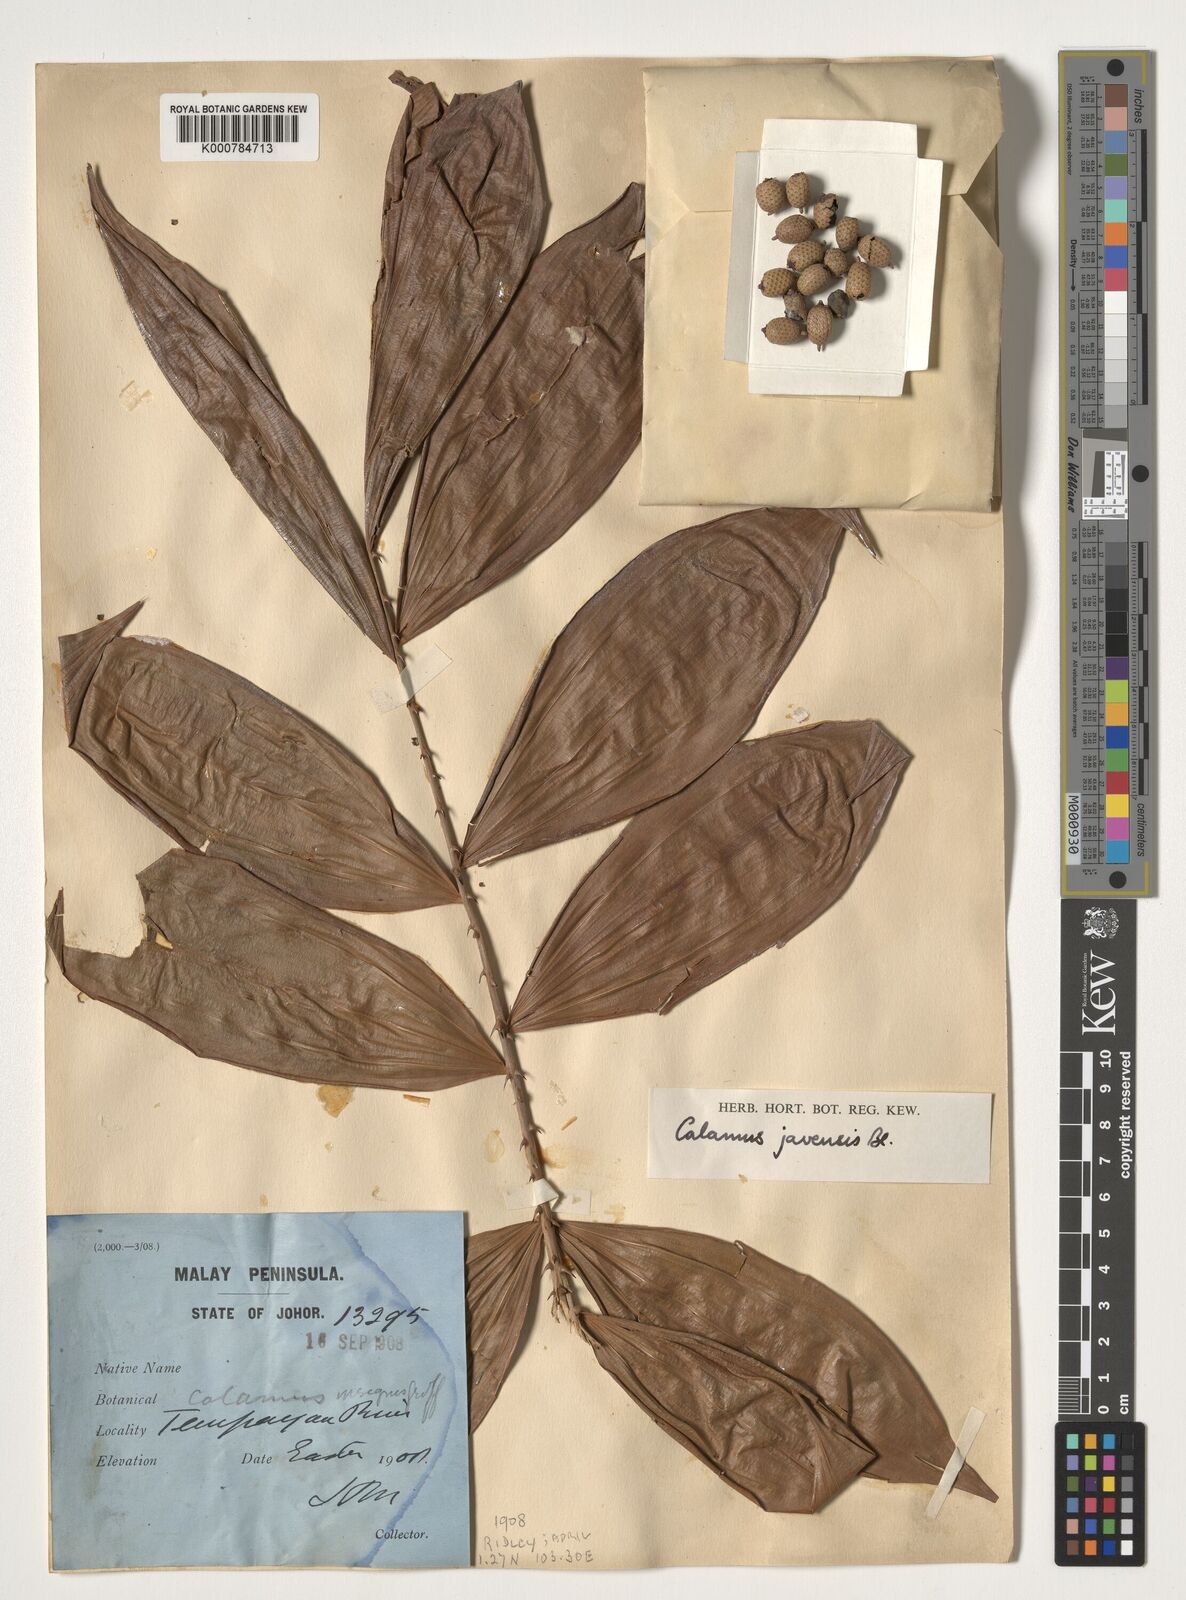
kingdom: Plantae
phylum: Tracheophyta
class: Liliopsida
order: Arecales
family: Arecaceae
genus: Calamus
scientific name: Calamus javensis
